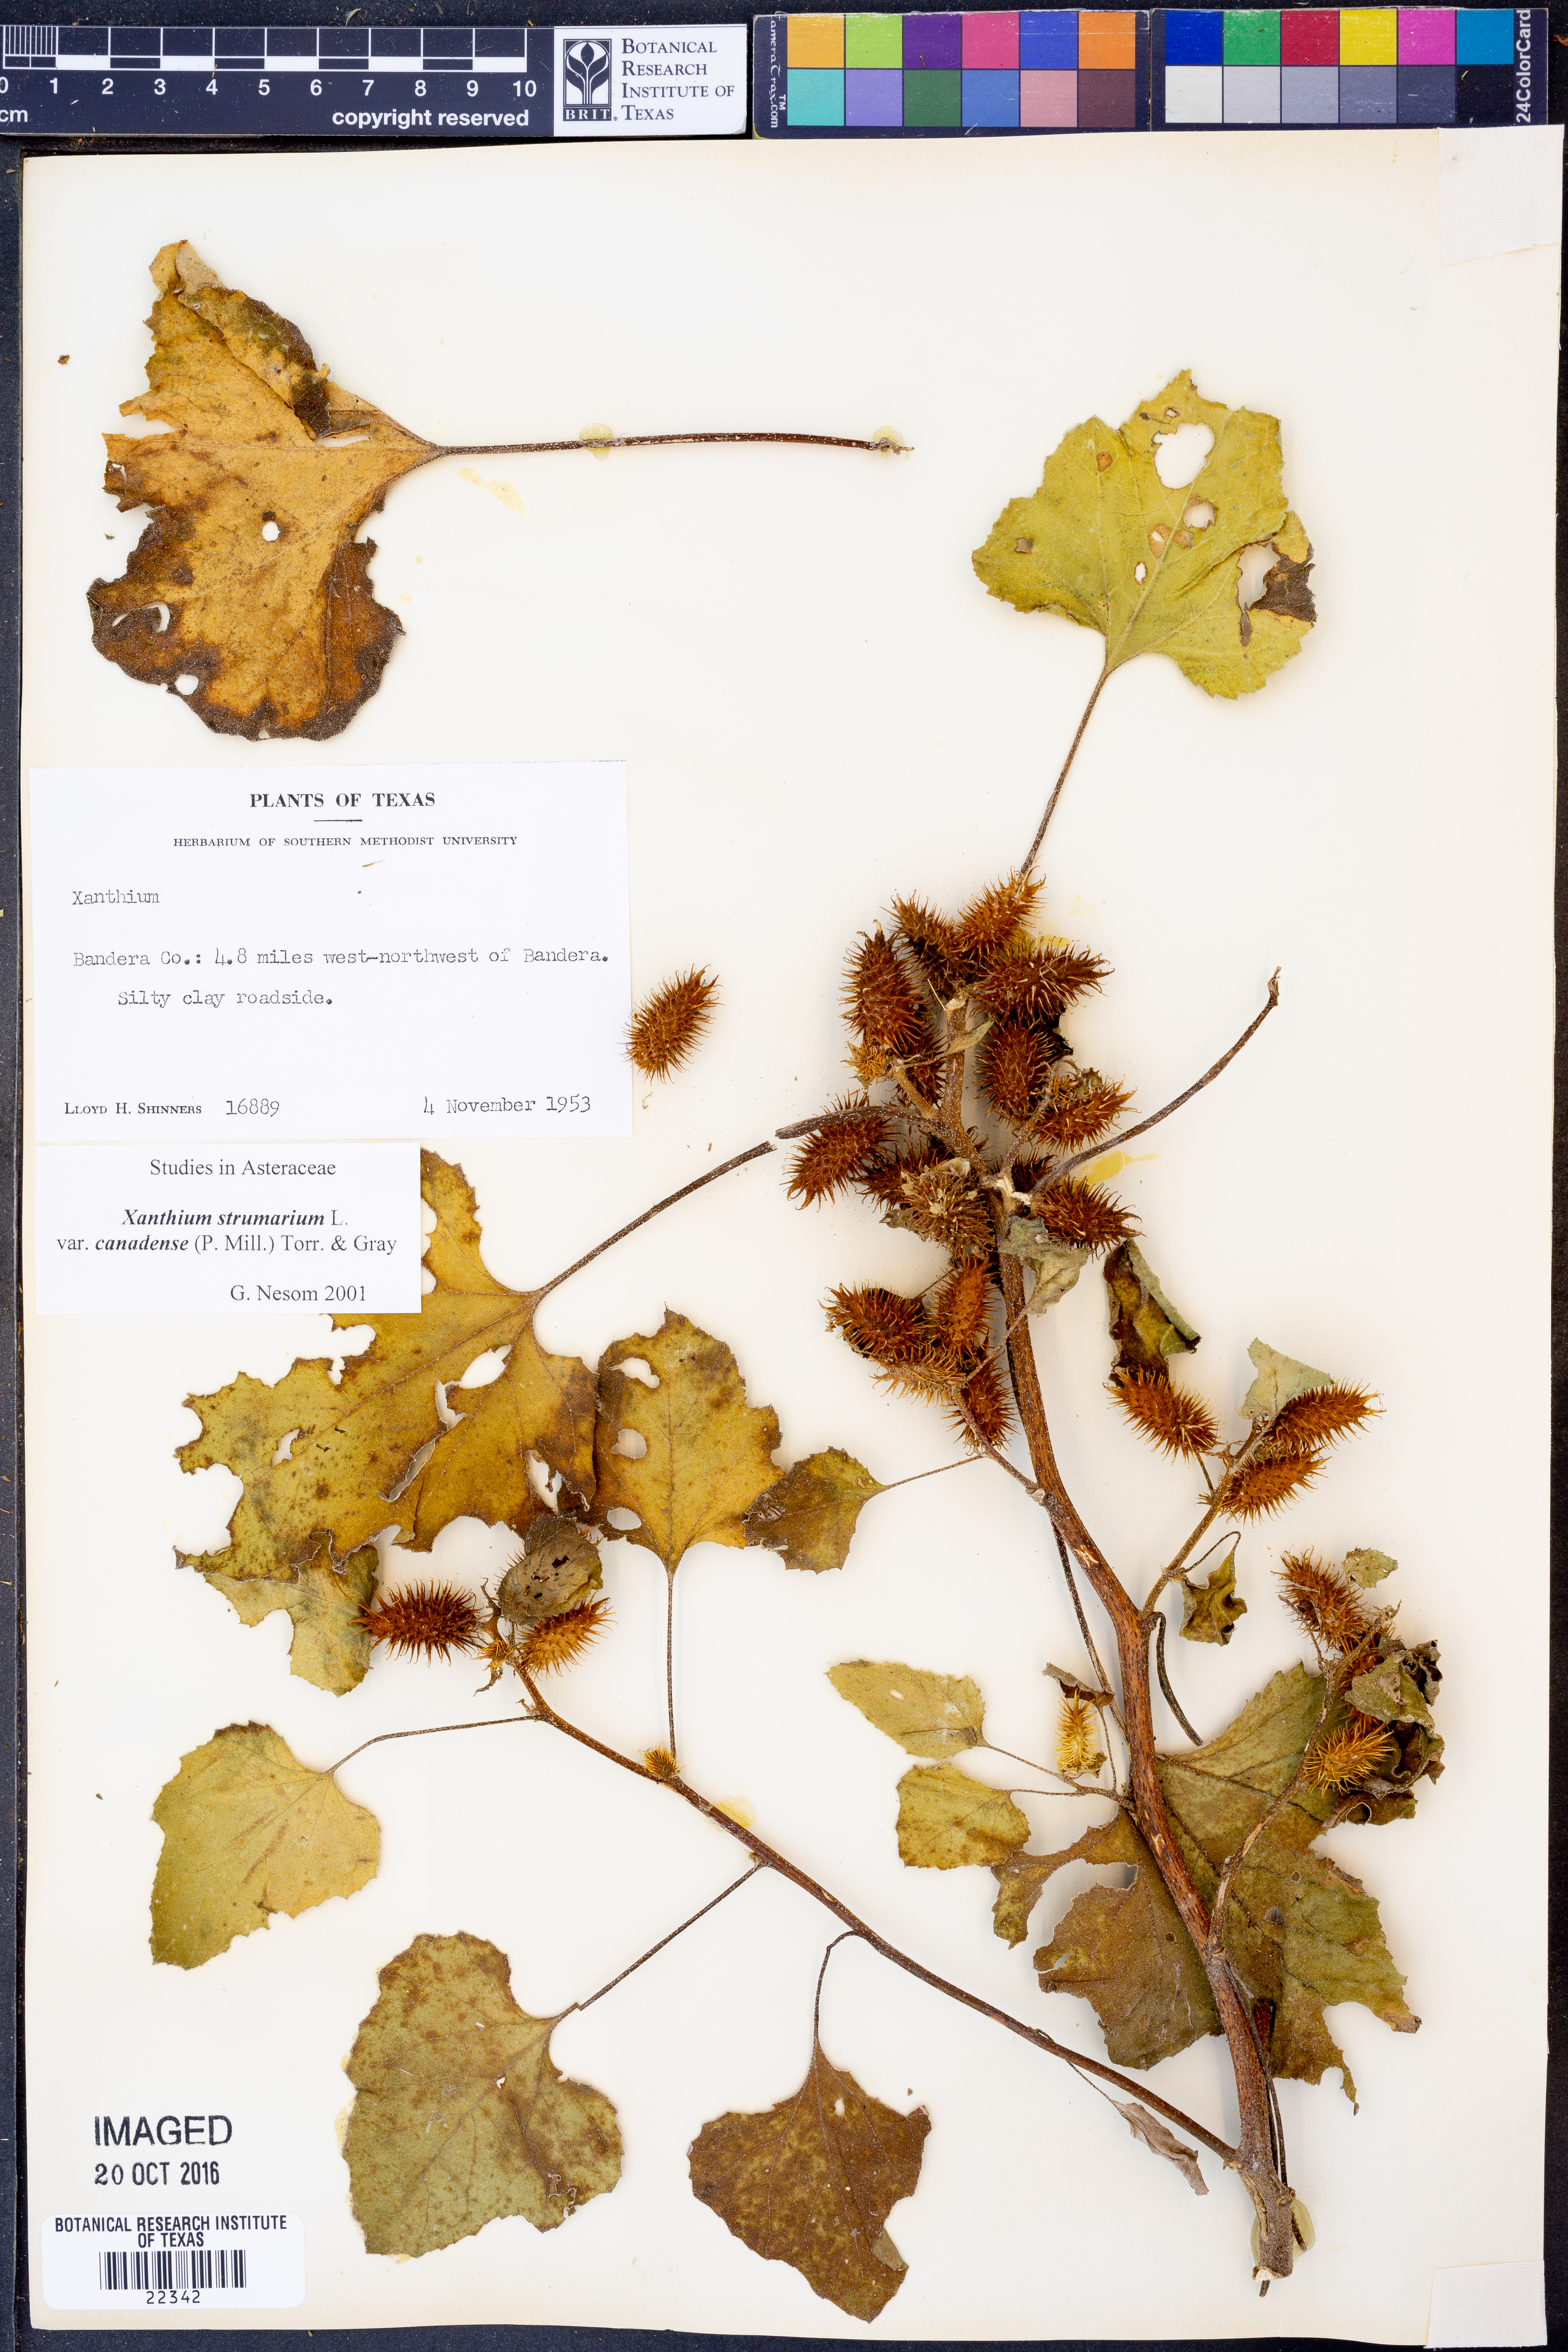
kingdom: Plantae
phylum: Tracheophyta
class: Magnoliopsida
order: Asterales
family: Asteraceae
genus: Xanthium
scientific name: Xanthium orientale
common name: Californian burr
